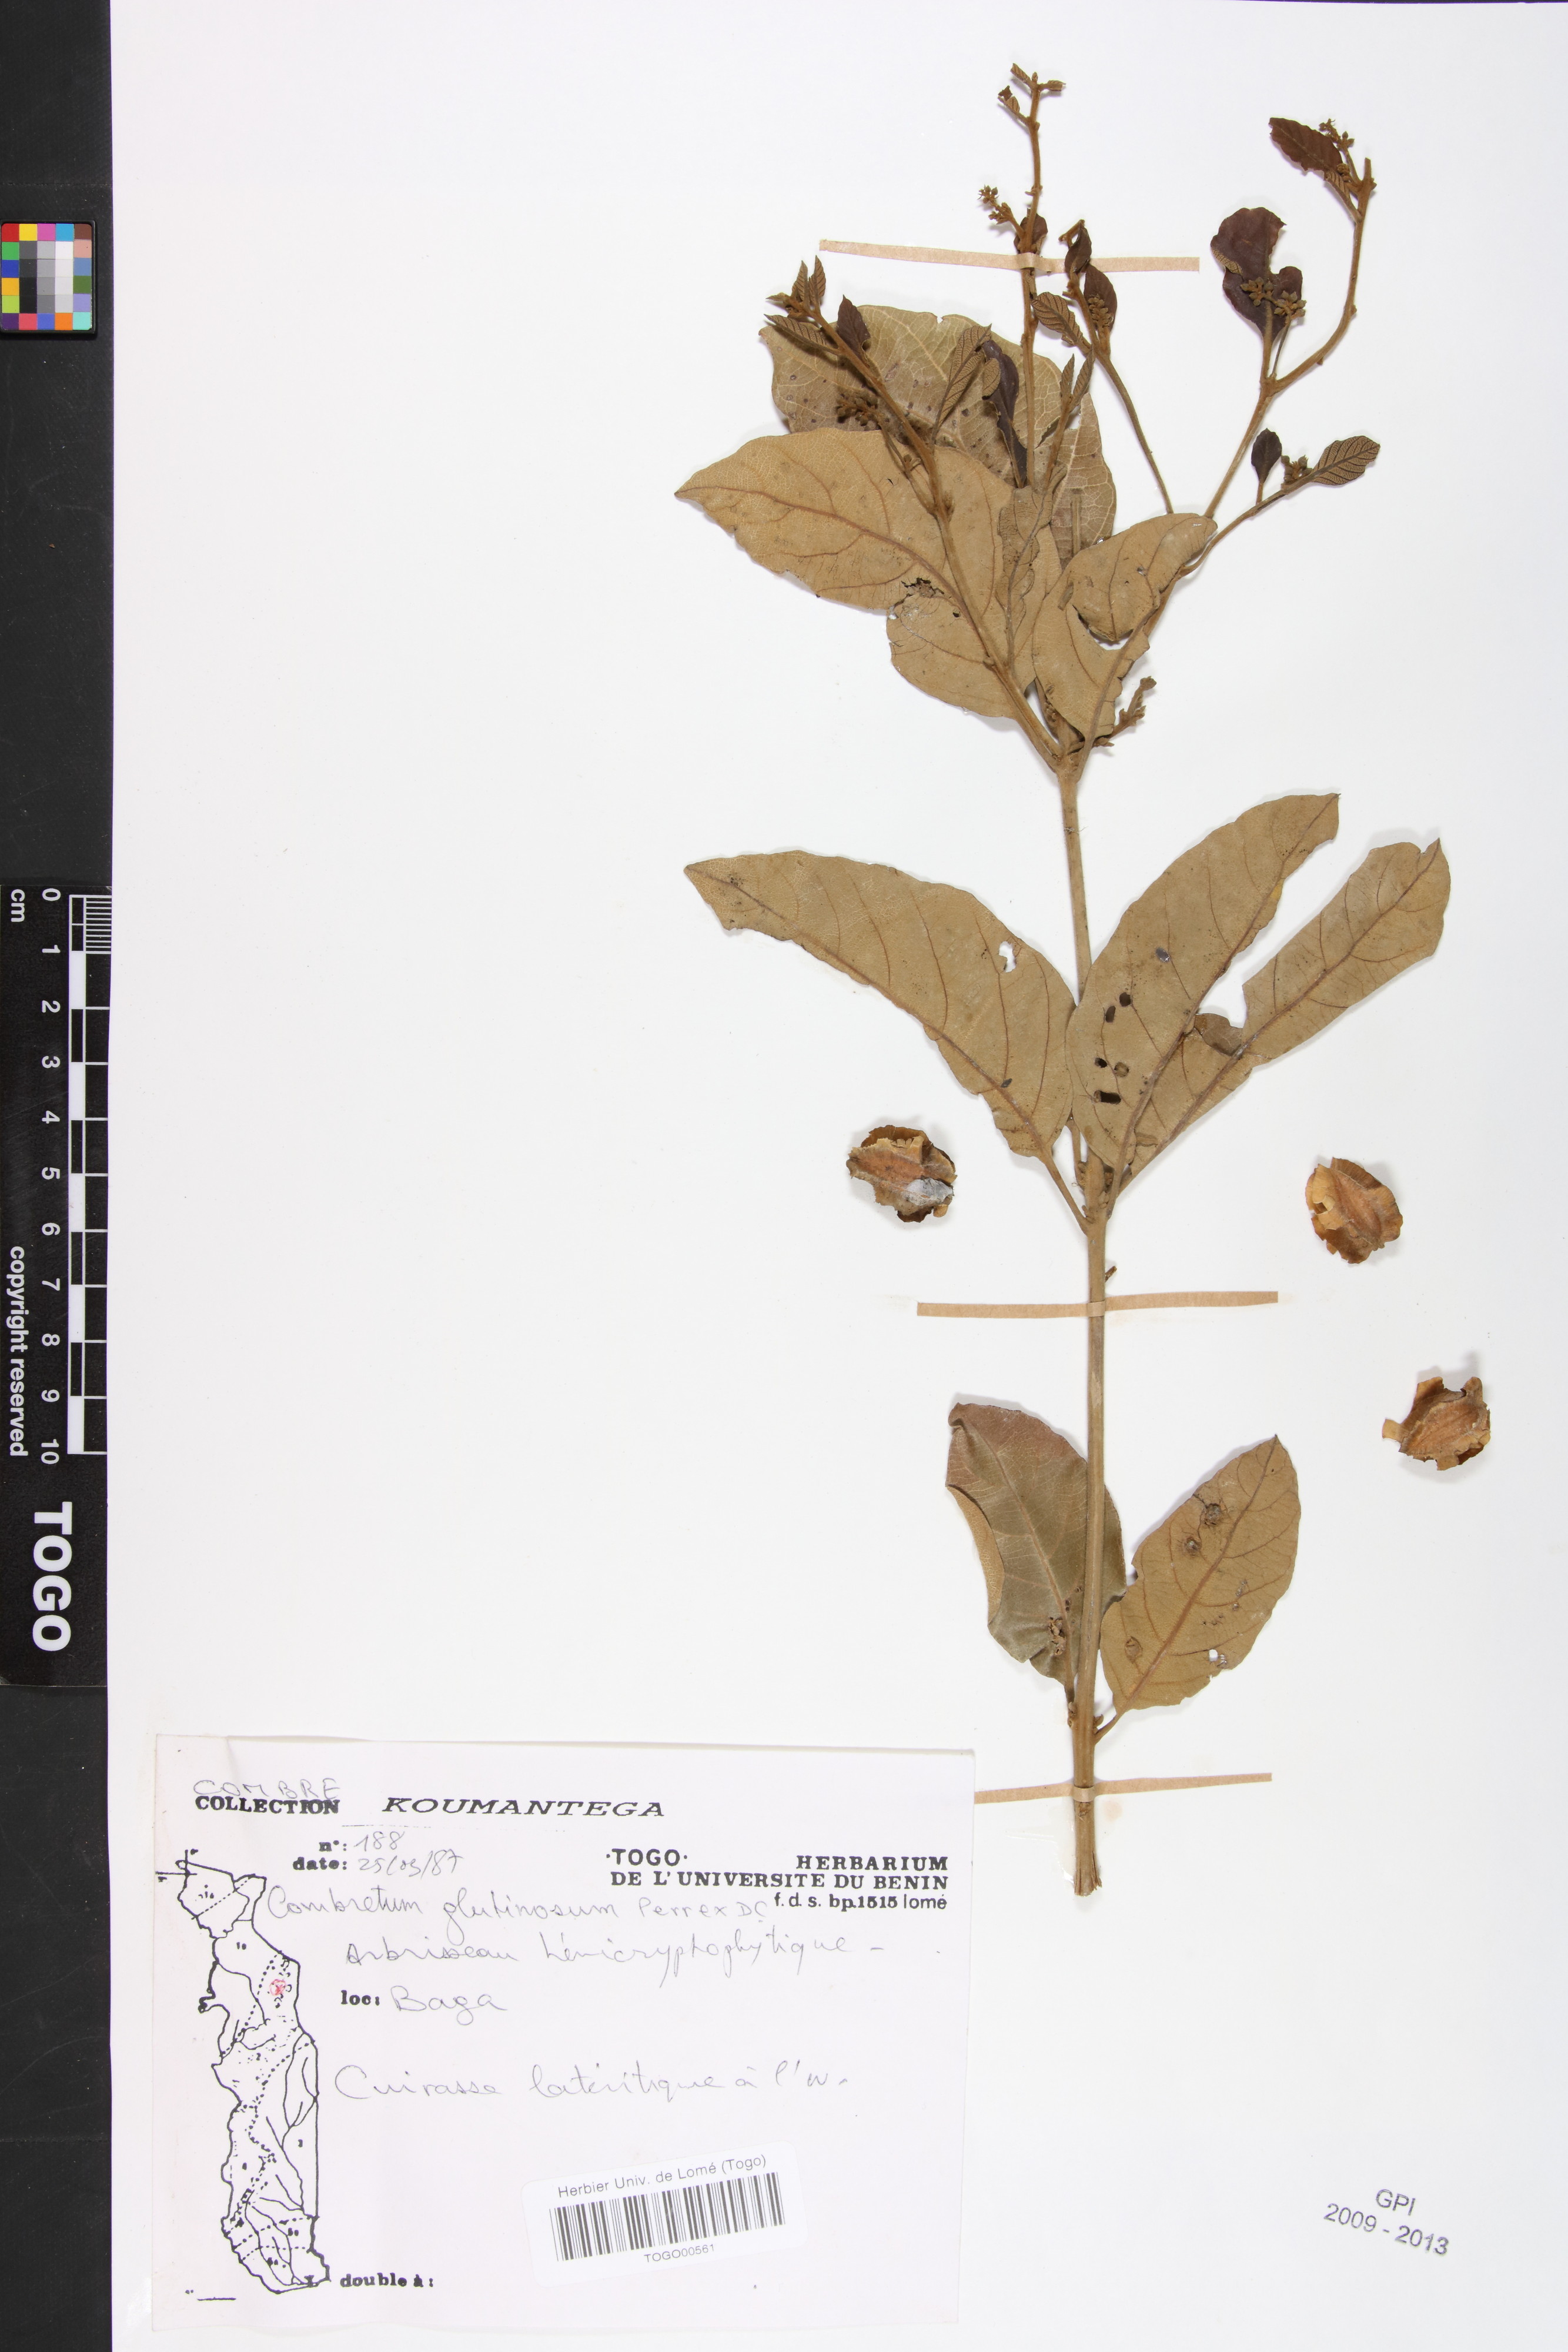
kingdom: Plantae
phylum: Tracheophyta
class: Magnoliopsida
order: Myrtales
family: Combretaceae
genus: Combretum
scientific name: Combretum glutinosum
